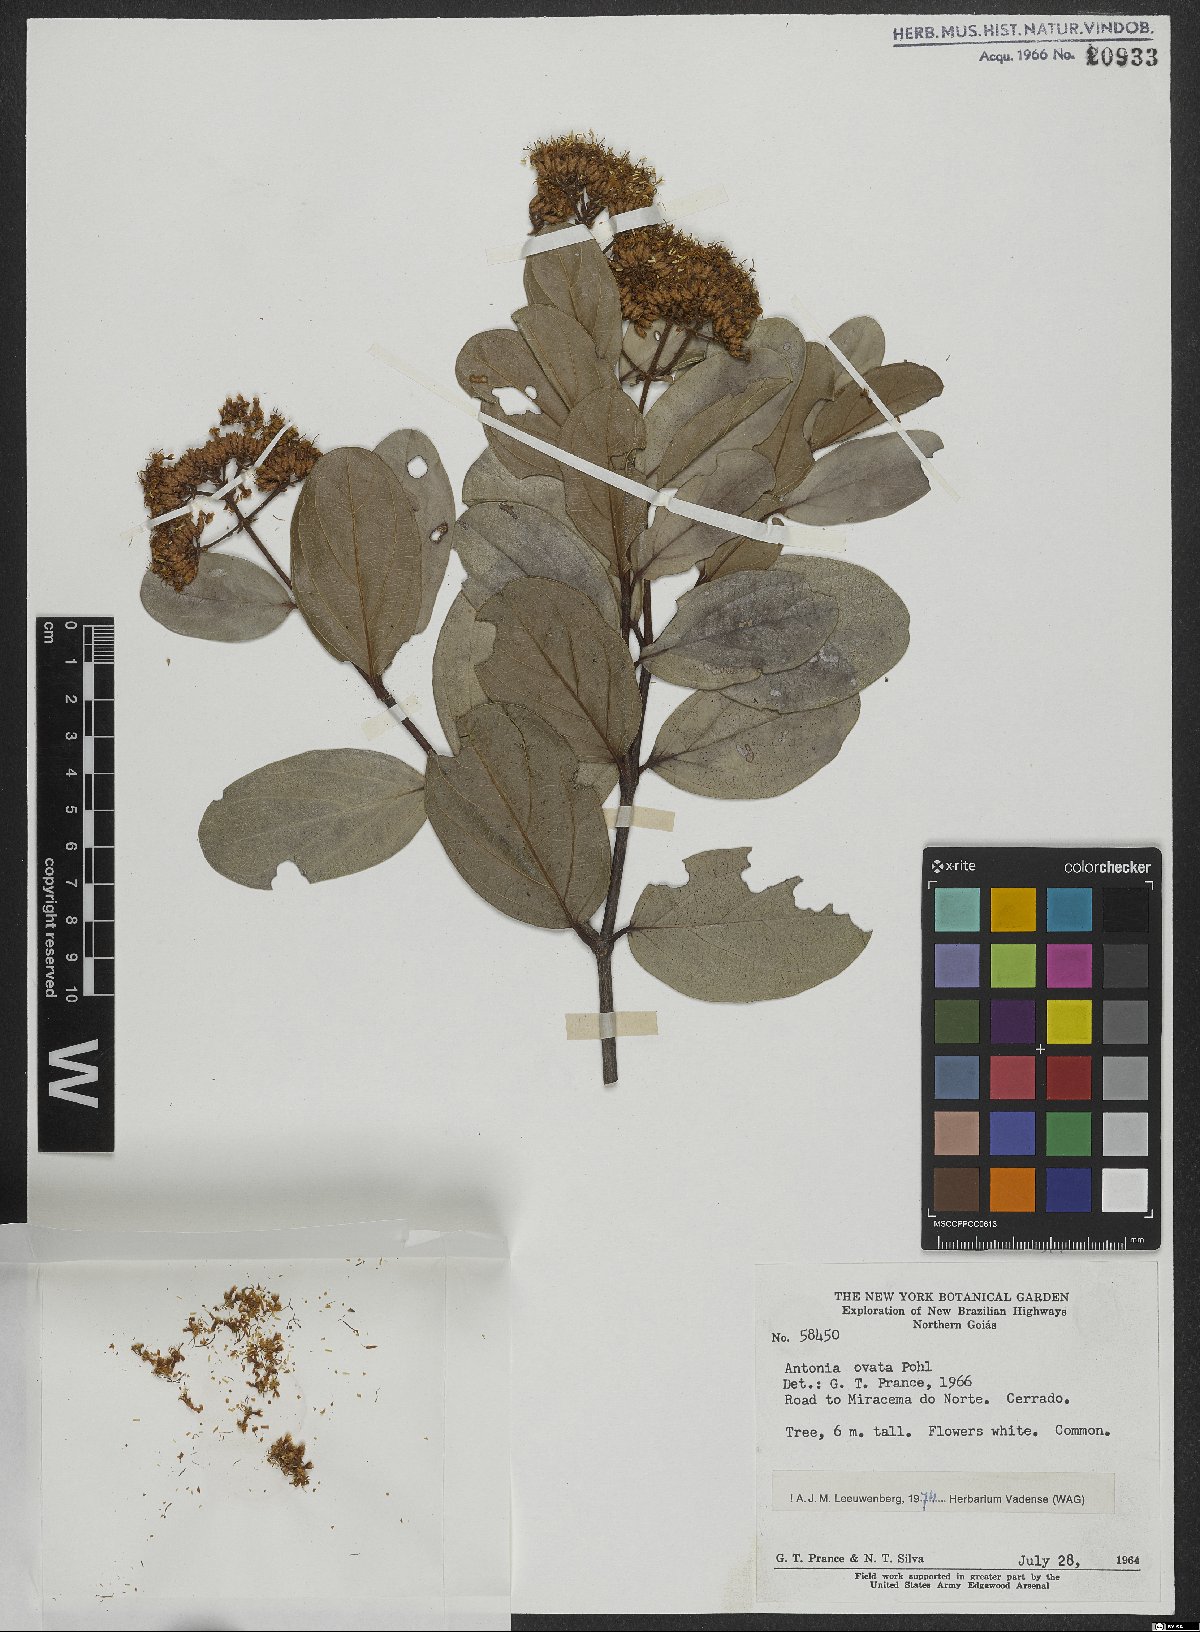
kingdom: Plantae
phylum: Tracheophyta
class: Magnoliopsida
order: Gentianales
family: Loganiaceae
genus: Antonia
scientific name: Antonia ovata
